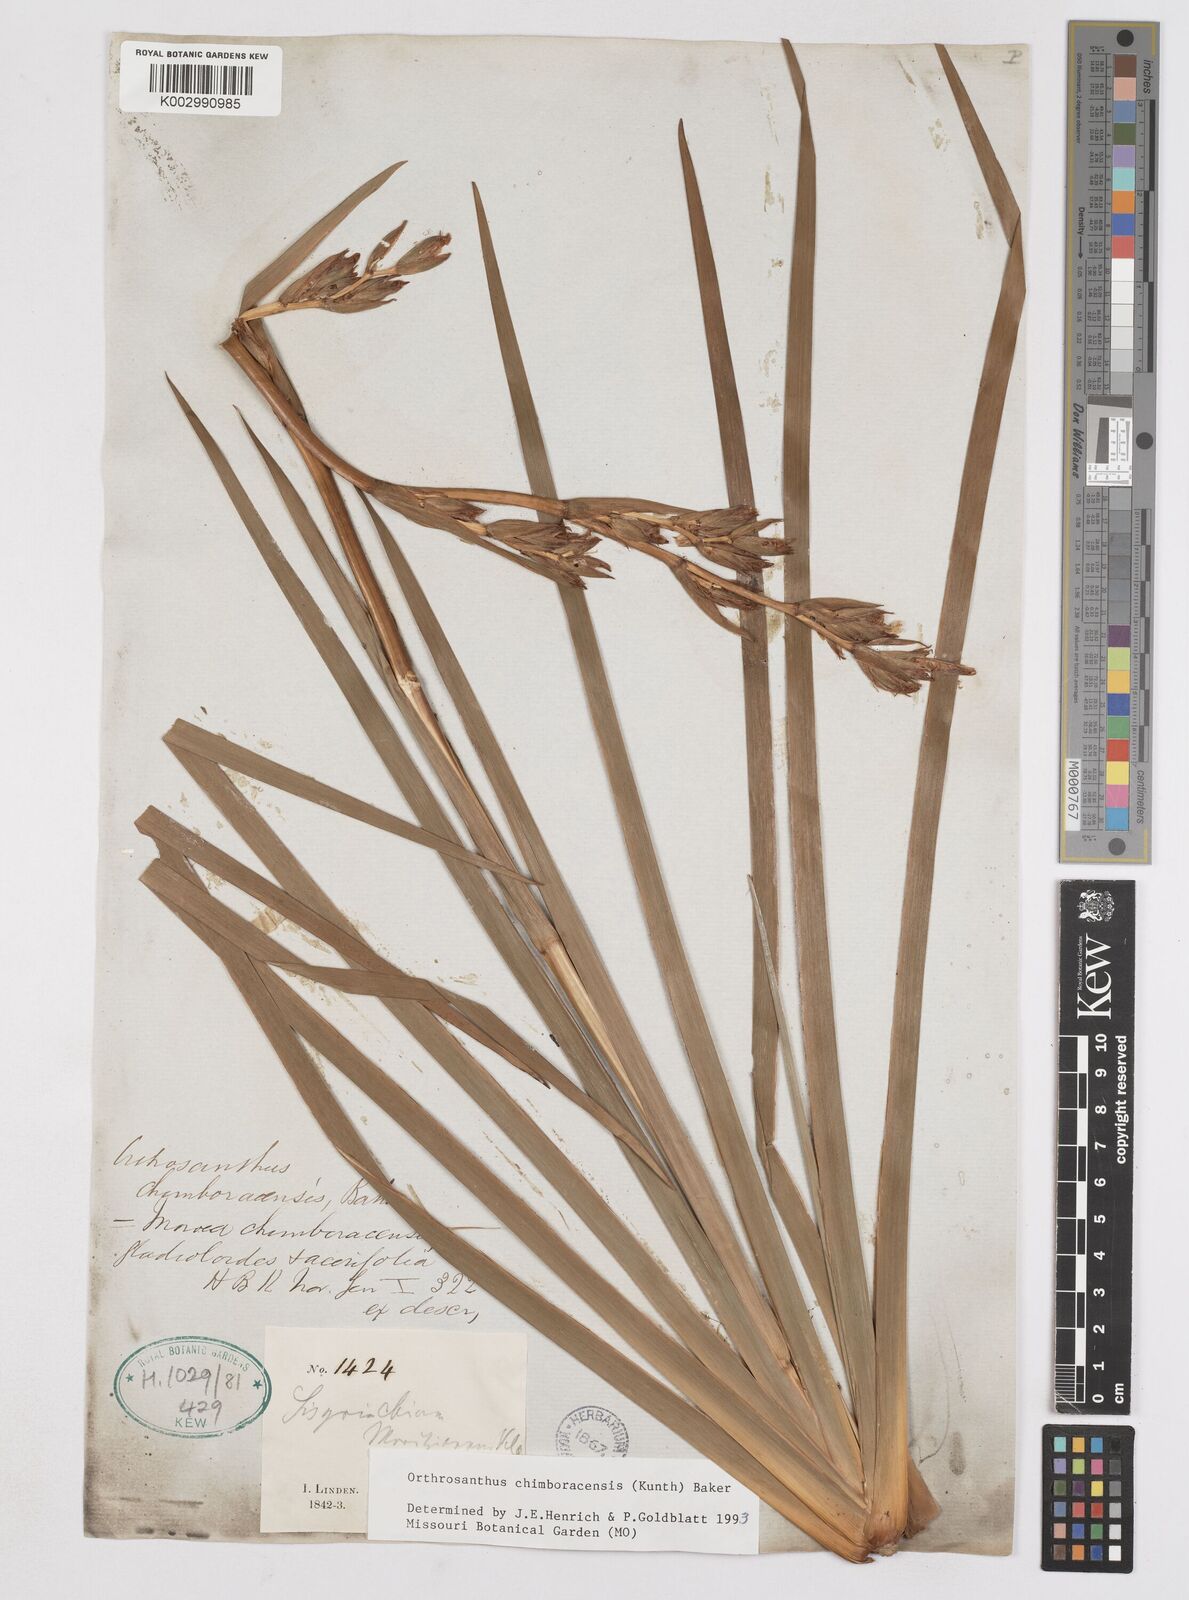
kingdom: Plantae
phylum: Tracheophyta
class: Liliopsida
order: Asparagales
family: Iridaceae
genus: Orthrosanthus
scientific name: Orthrosanthus chimboracensis
